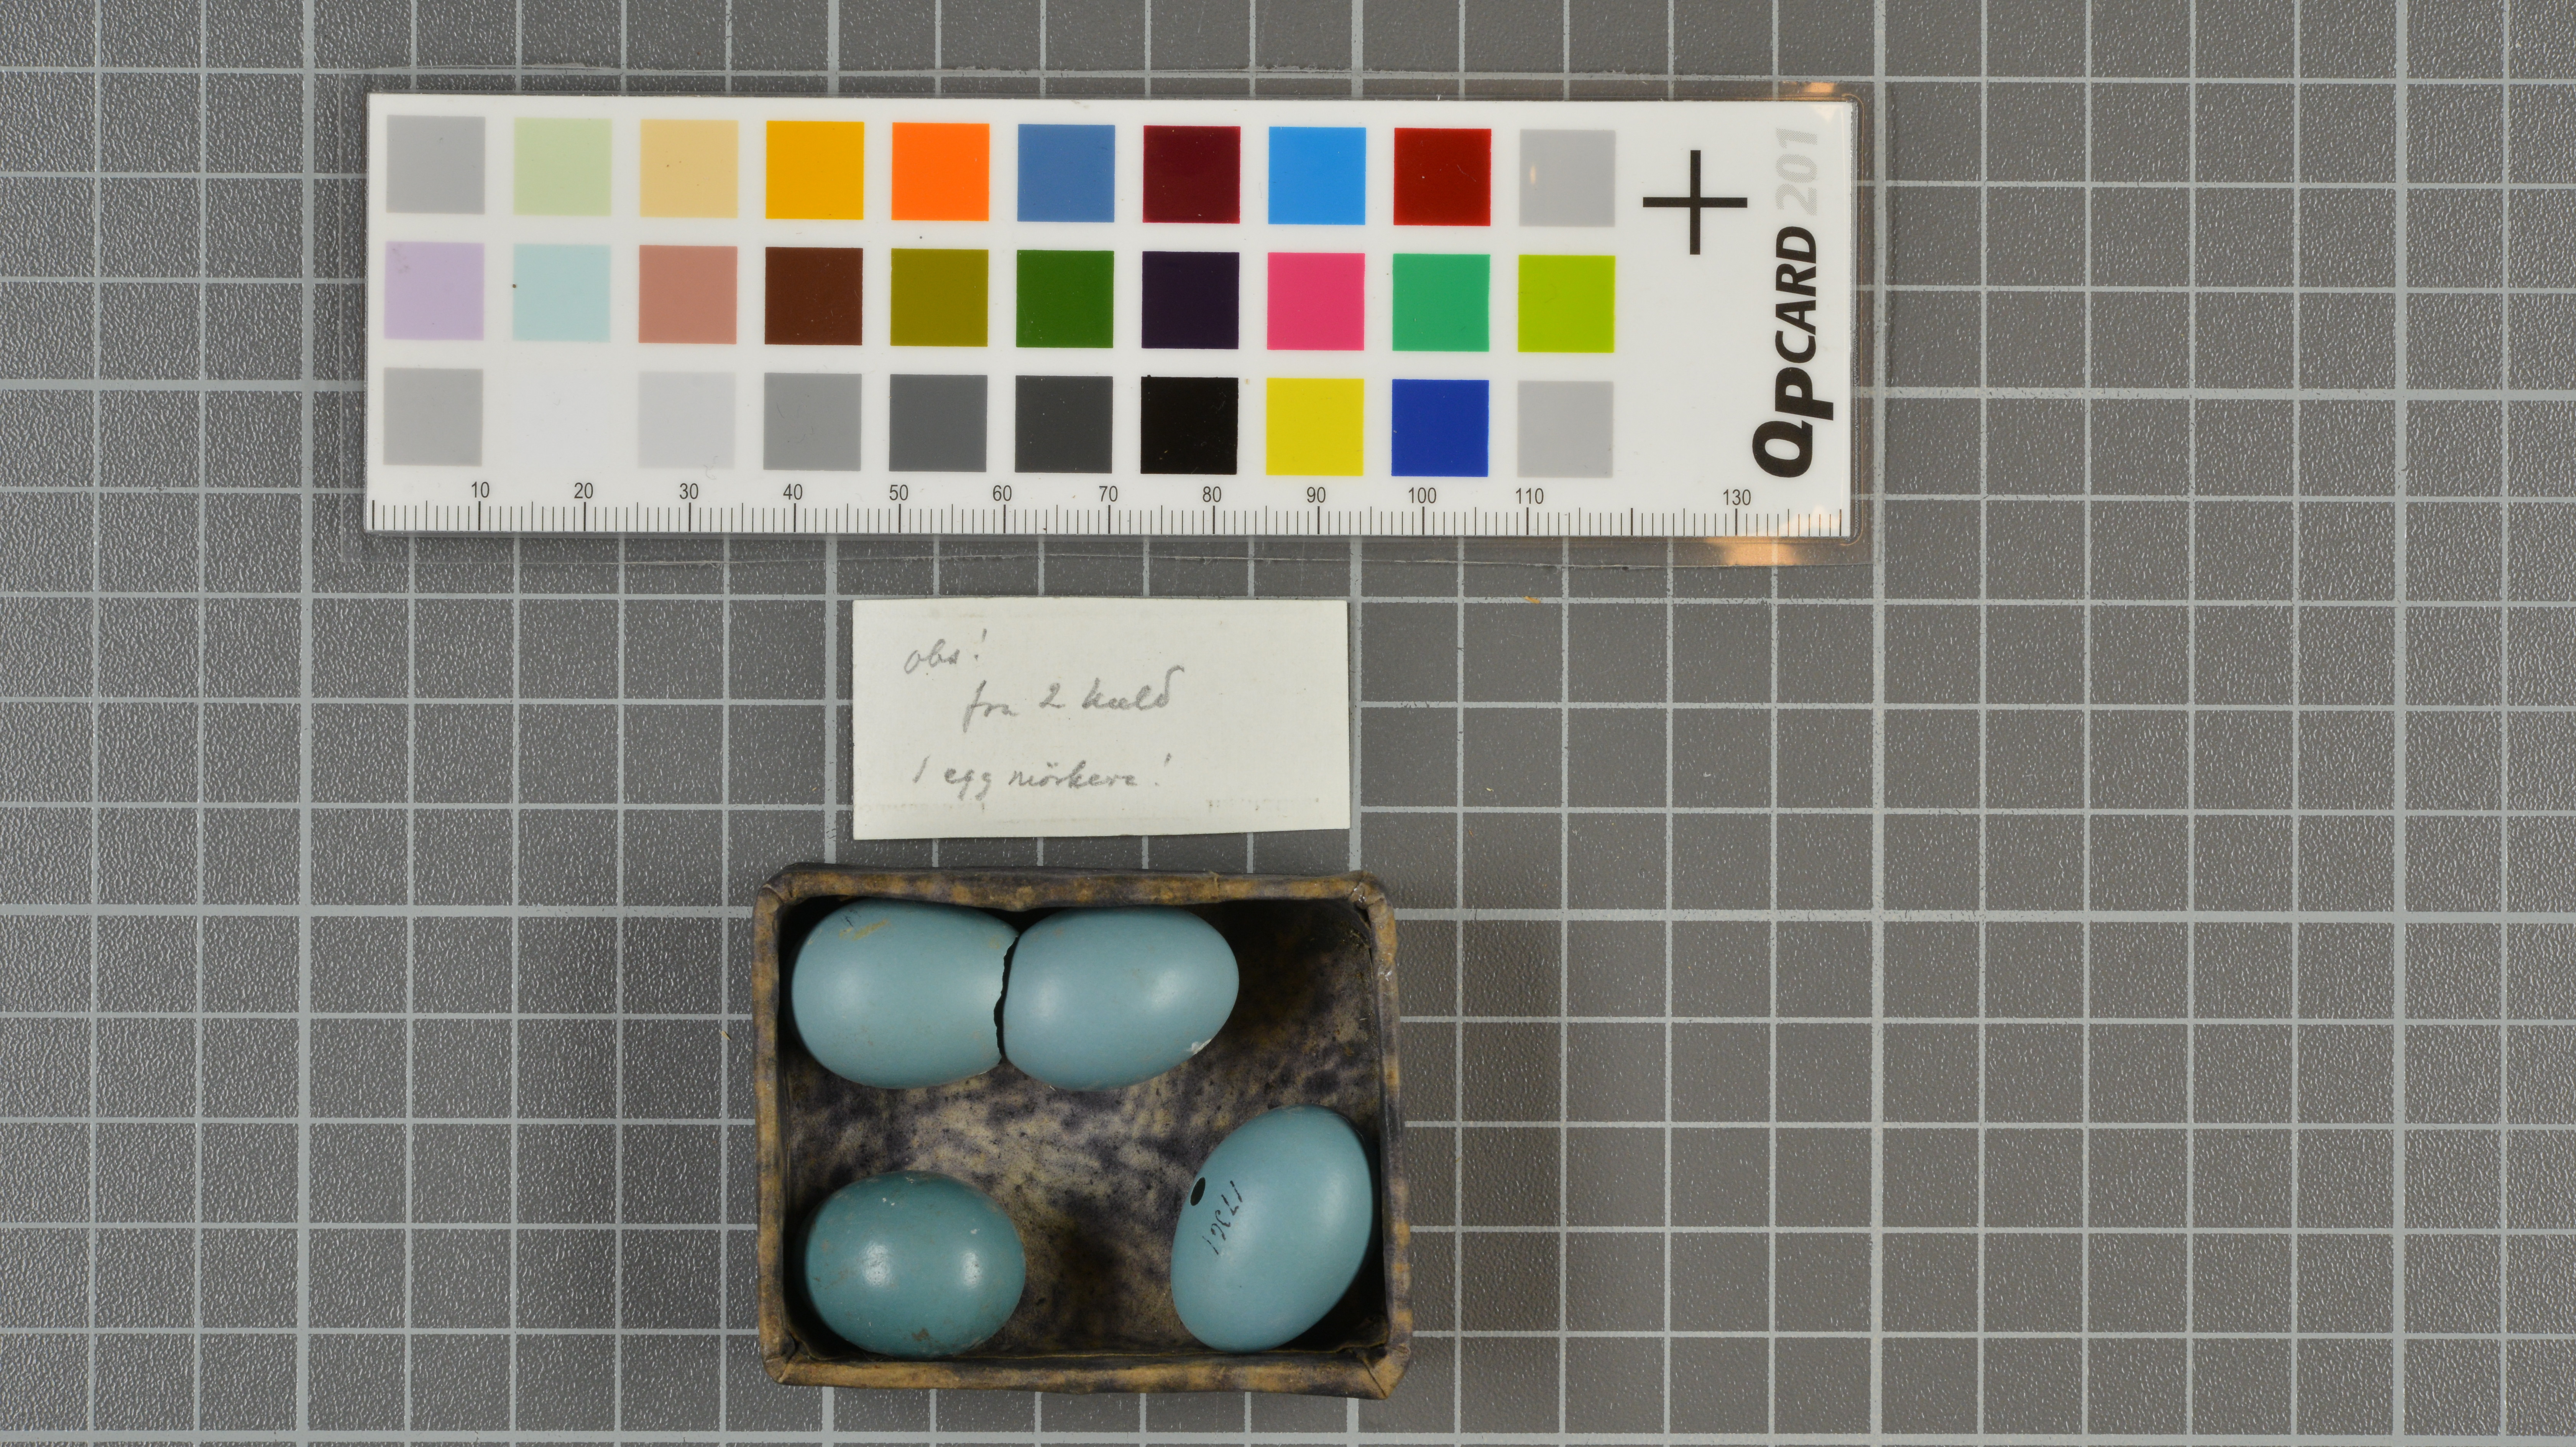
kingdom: Animalia
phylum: Chordata
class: Aves
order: Passeriformes
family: Mimidae
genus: Dumetella
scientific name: Dumetella carolinensis
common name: Gray catbird
